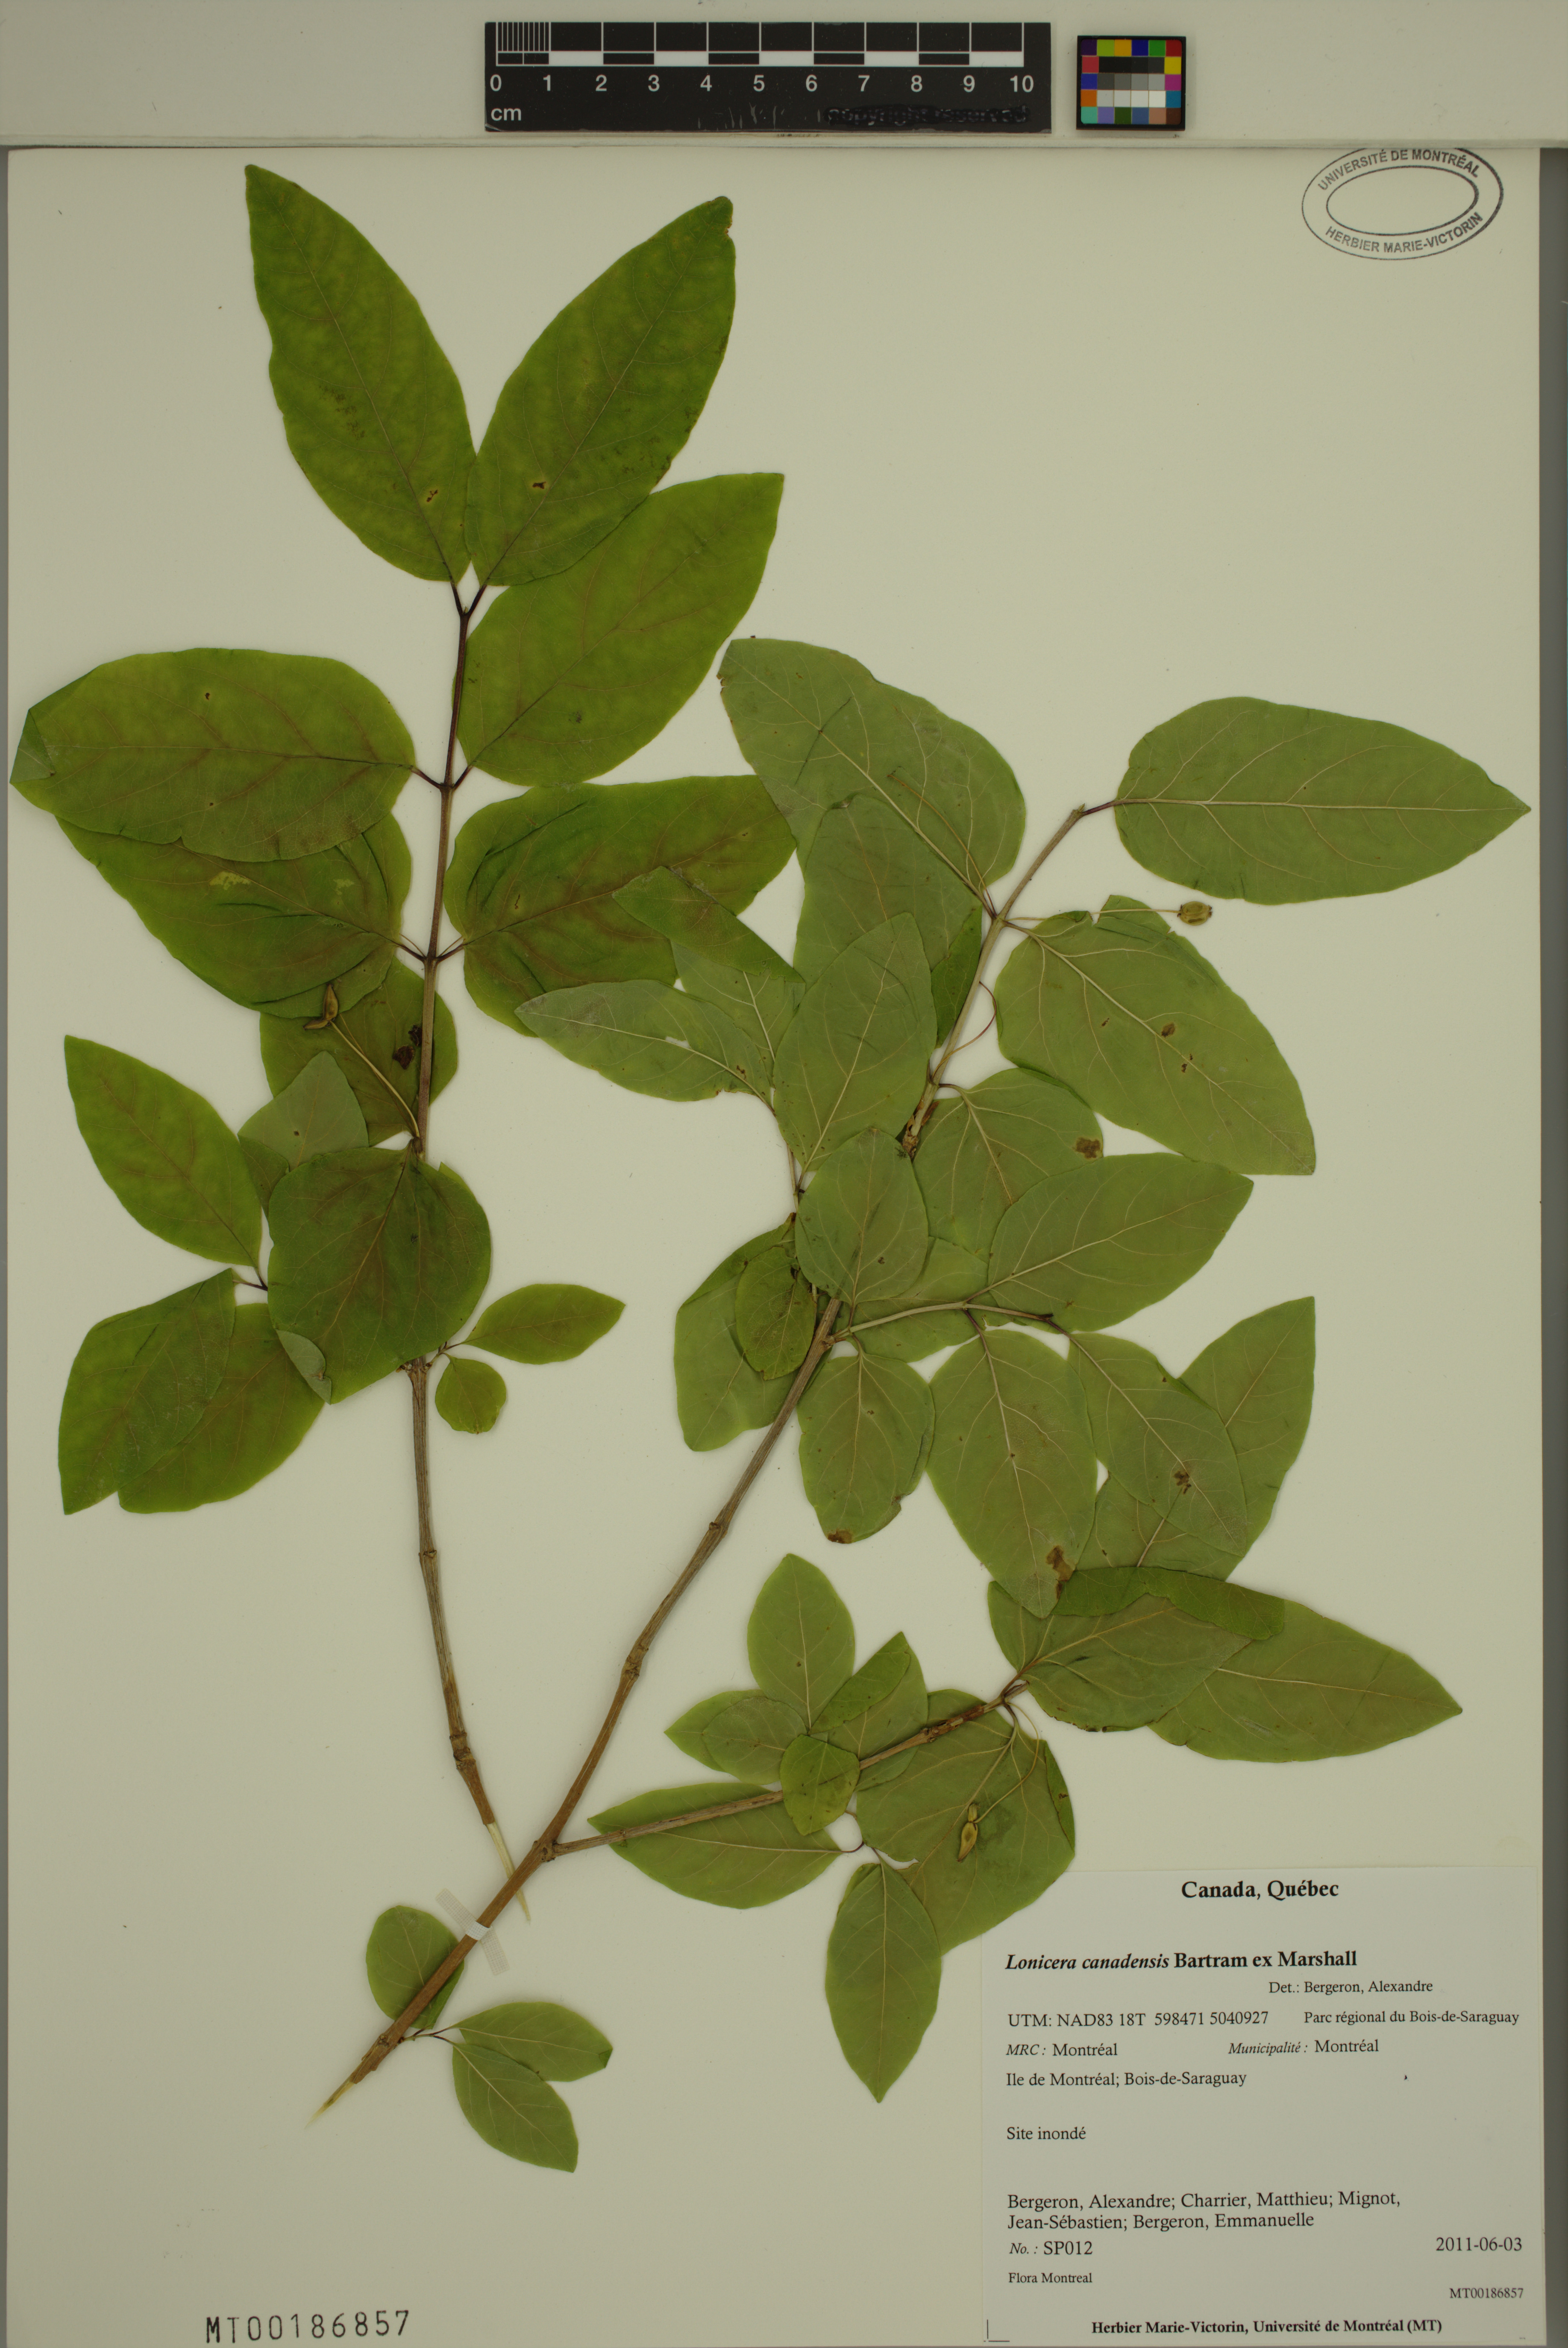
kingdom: Plantae
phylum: Tracheophyta
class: Magnoliopsida
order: Dipsacales
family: Caprifoliaceae
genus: Lonicera
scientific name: Lonicera canadensis
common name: American fly-honeysuckle
